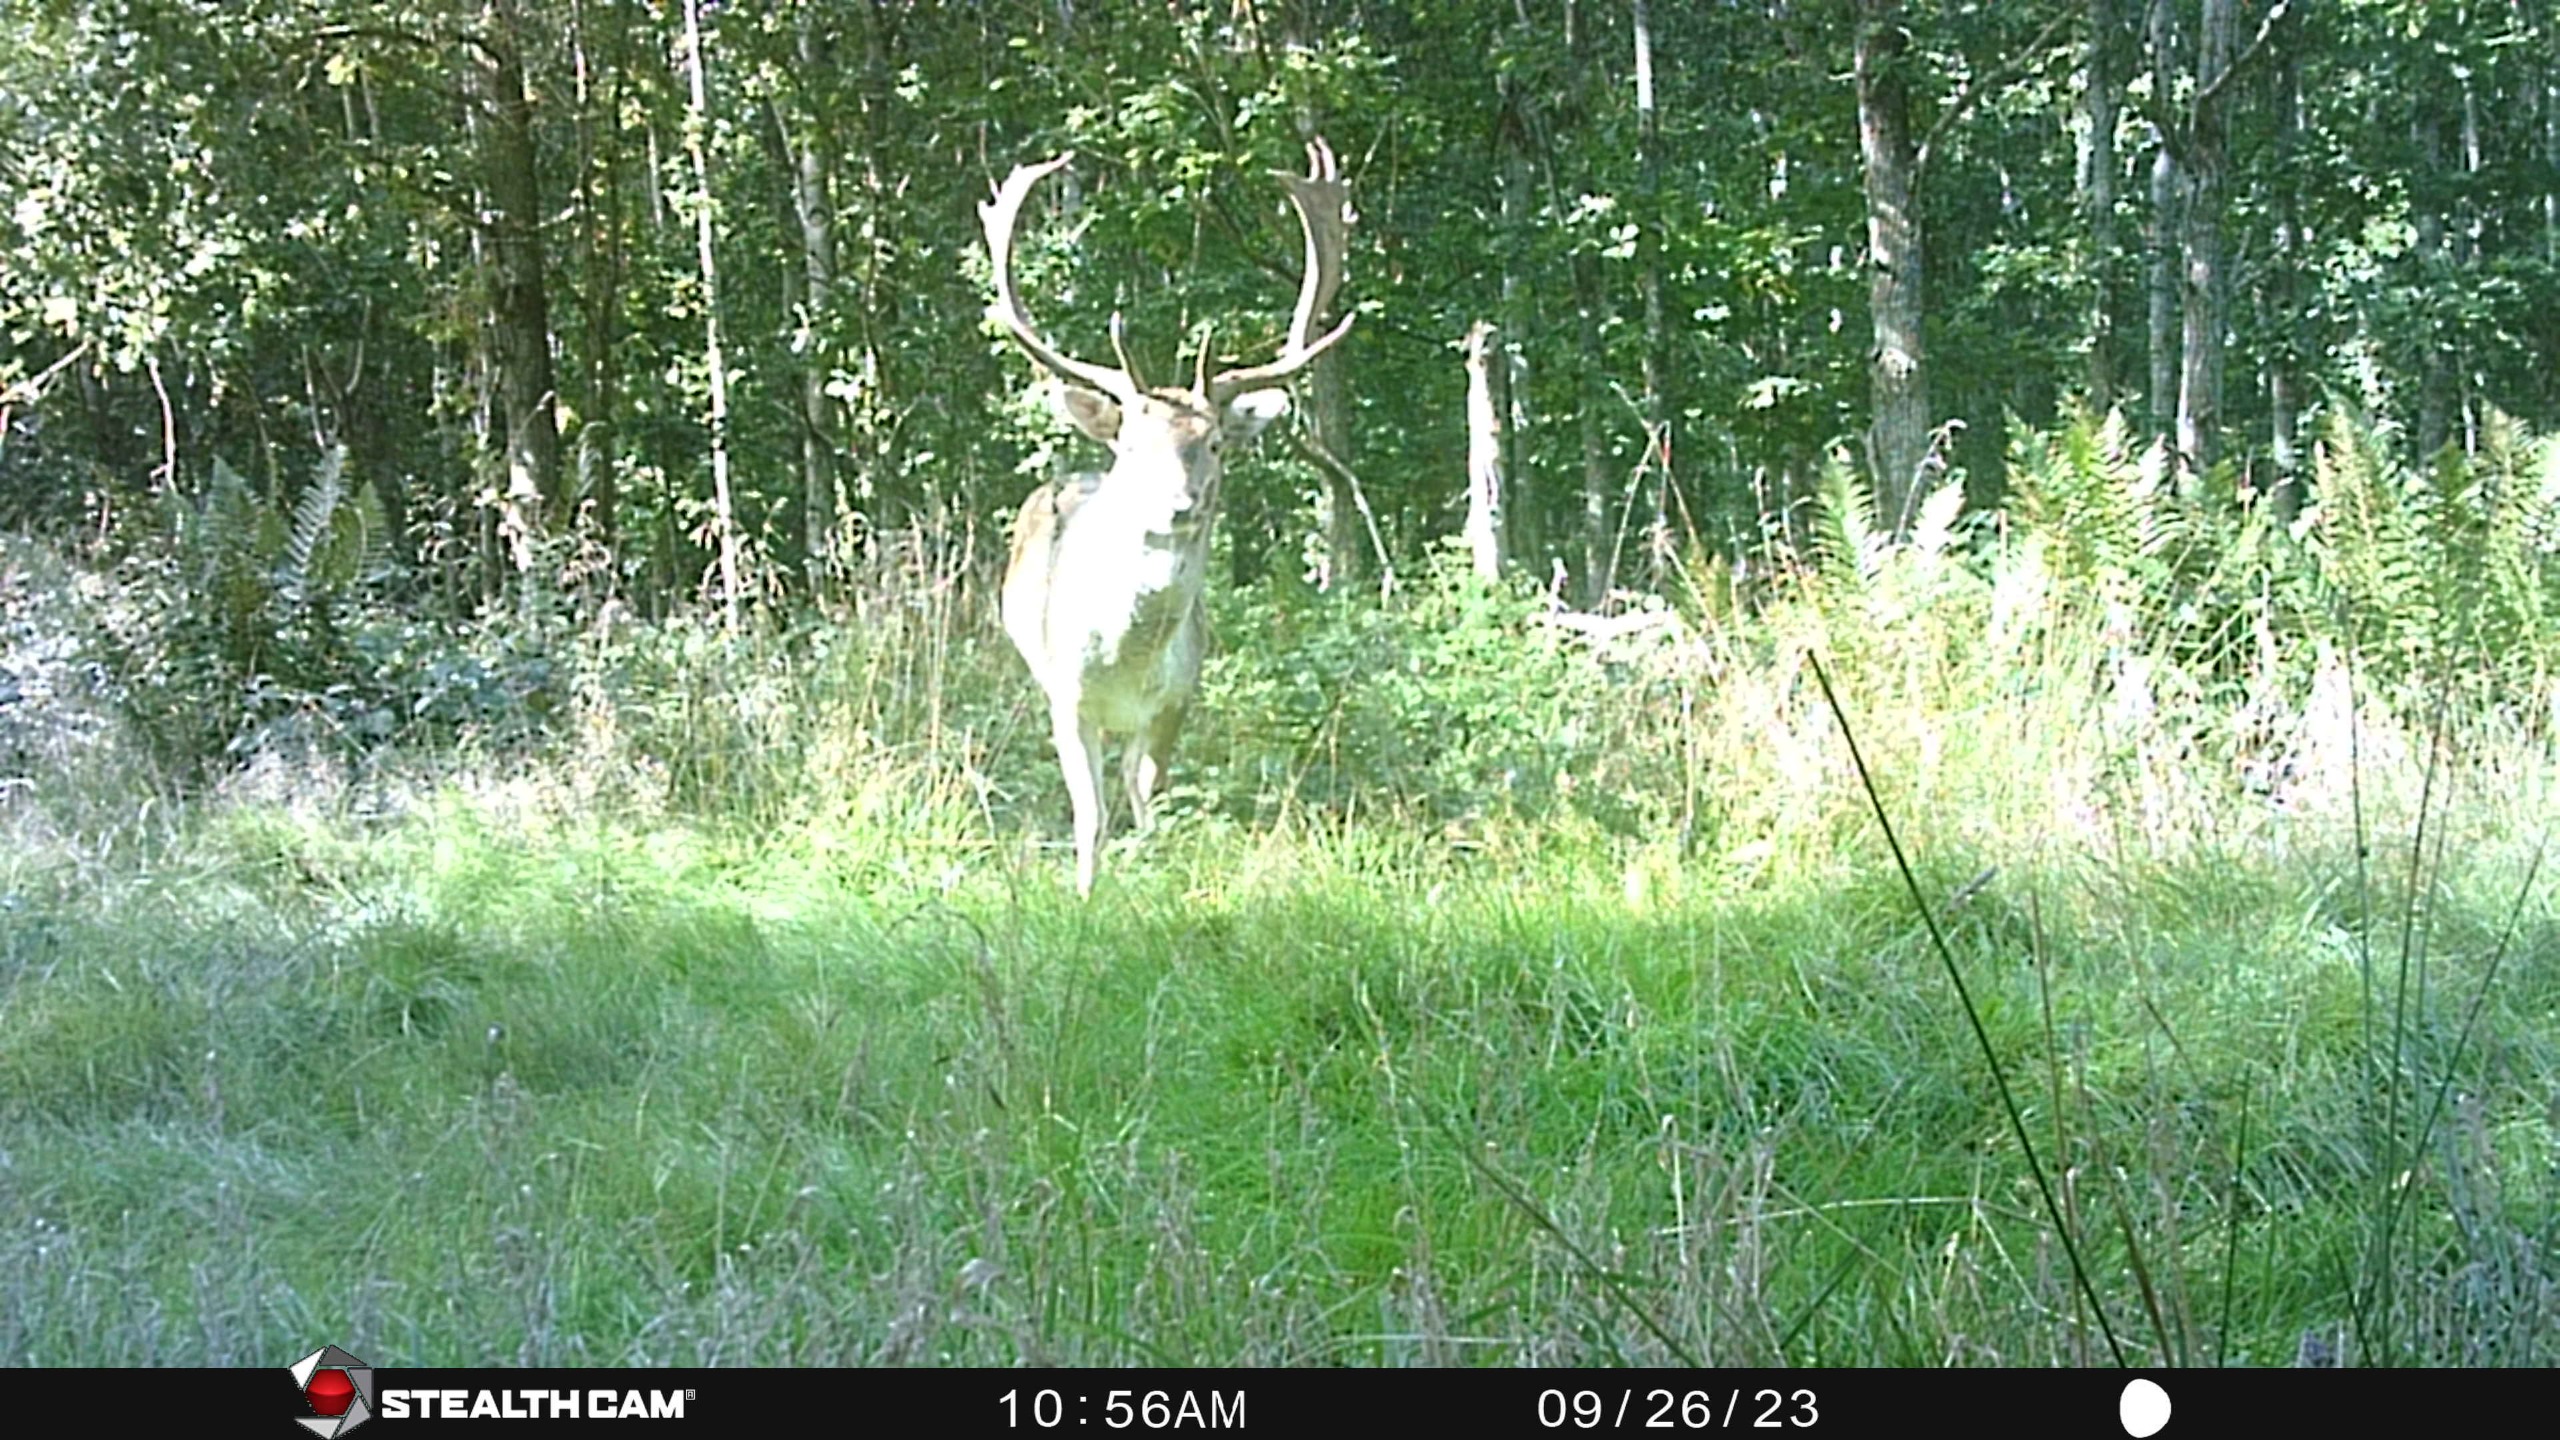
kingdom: Animalia
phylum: Chordata
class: Mammalia
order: Artiodactyla
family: Cervidae
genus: Dama
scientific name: Dama dama
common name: Dådyr
